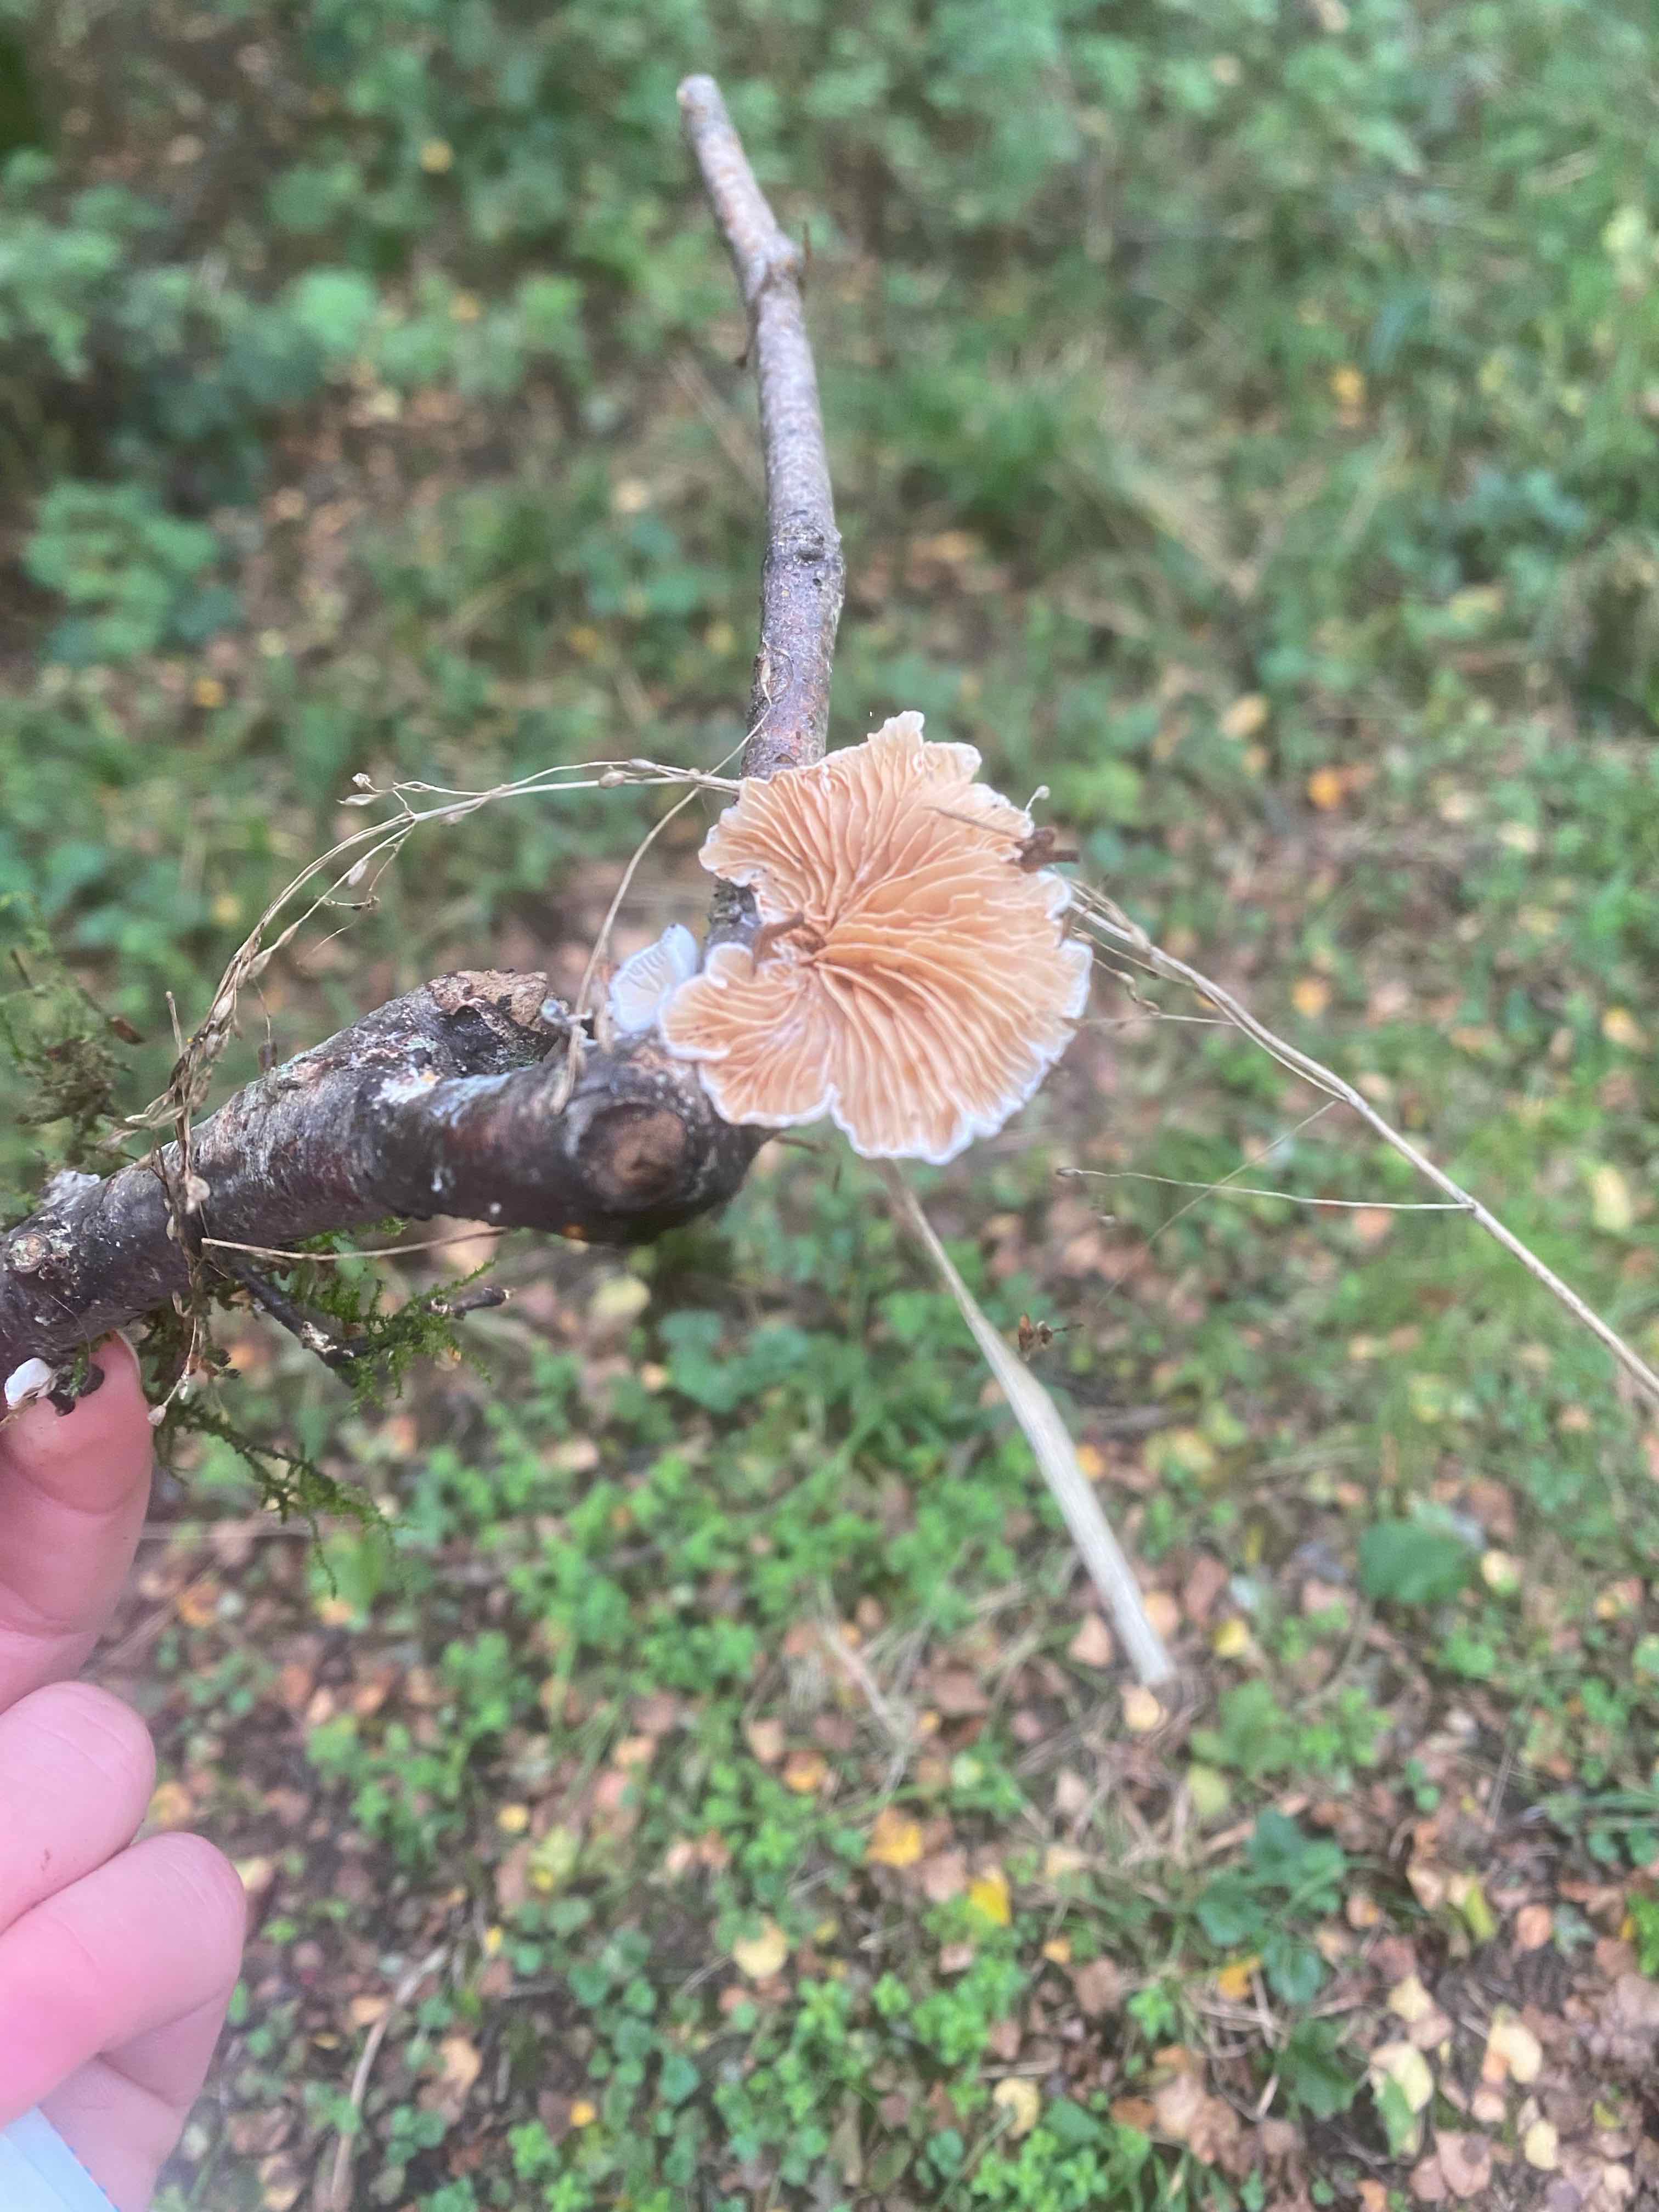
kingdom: Fungi
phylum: Basidiomycota
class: Agaricomycetes
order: Agaricales
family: Crepidotaceae
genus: Crepidotus
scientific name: Crepidotus
